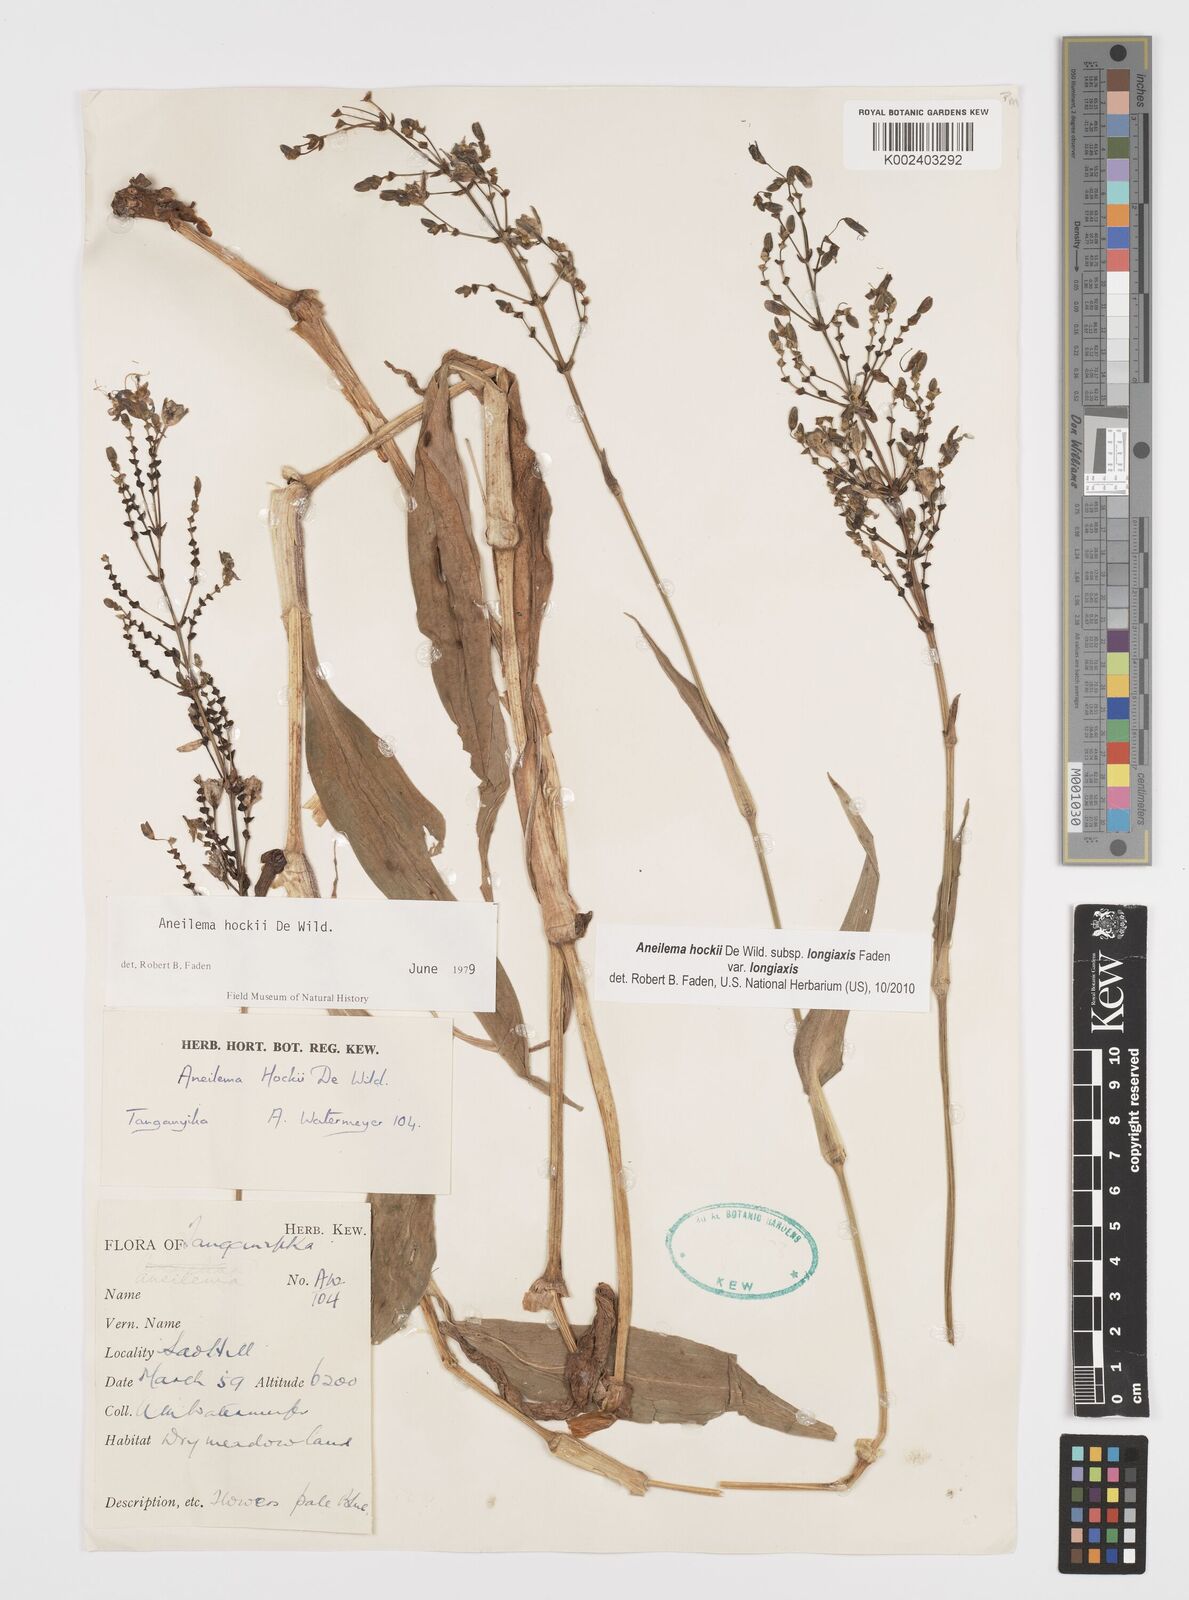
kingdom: Plantae
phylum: Tracheophyta
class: Liliopsida
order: Commelinales
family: Commelinaceae
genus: Aneilema
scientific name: Aneilema hockii
